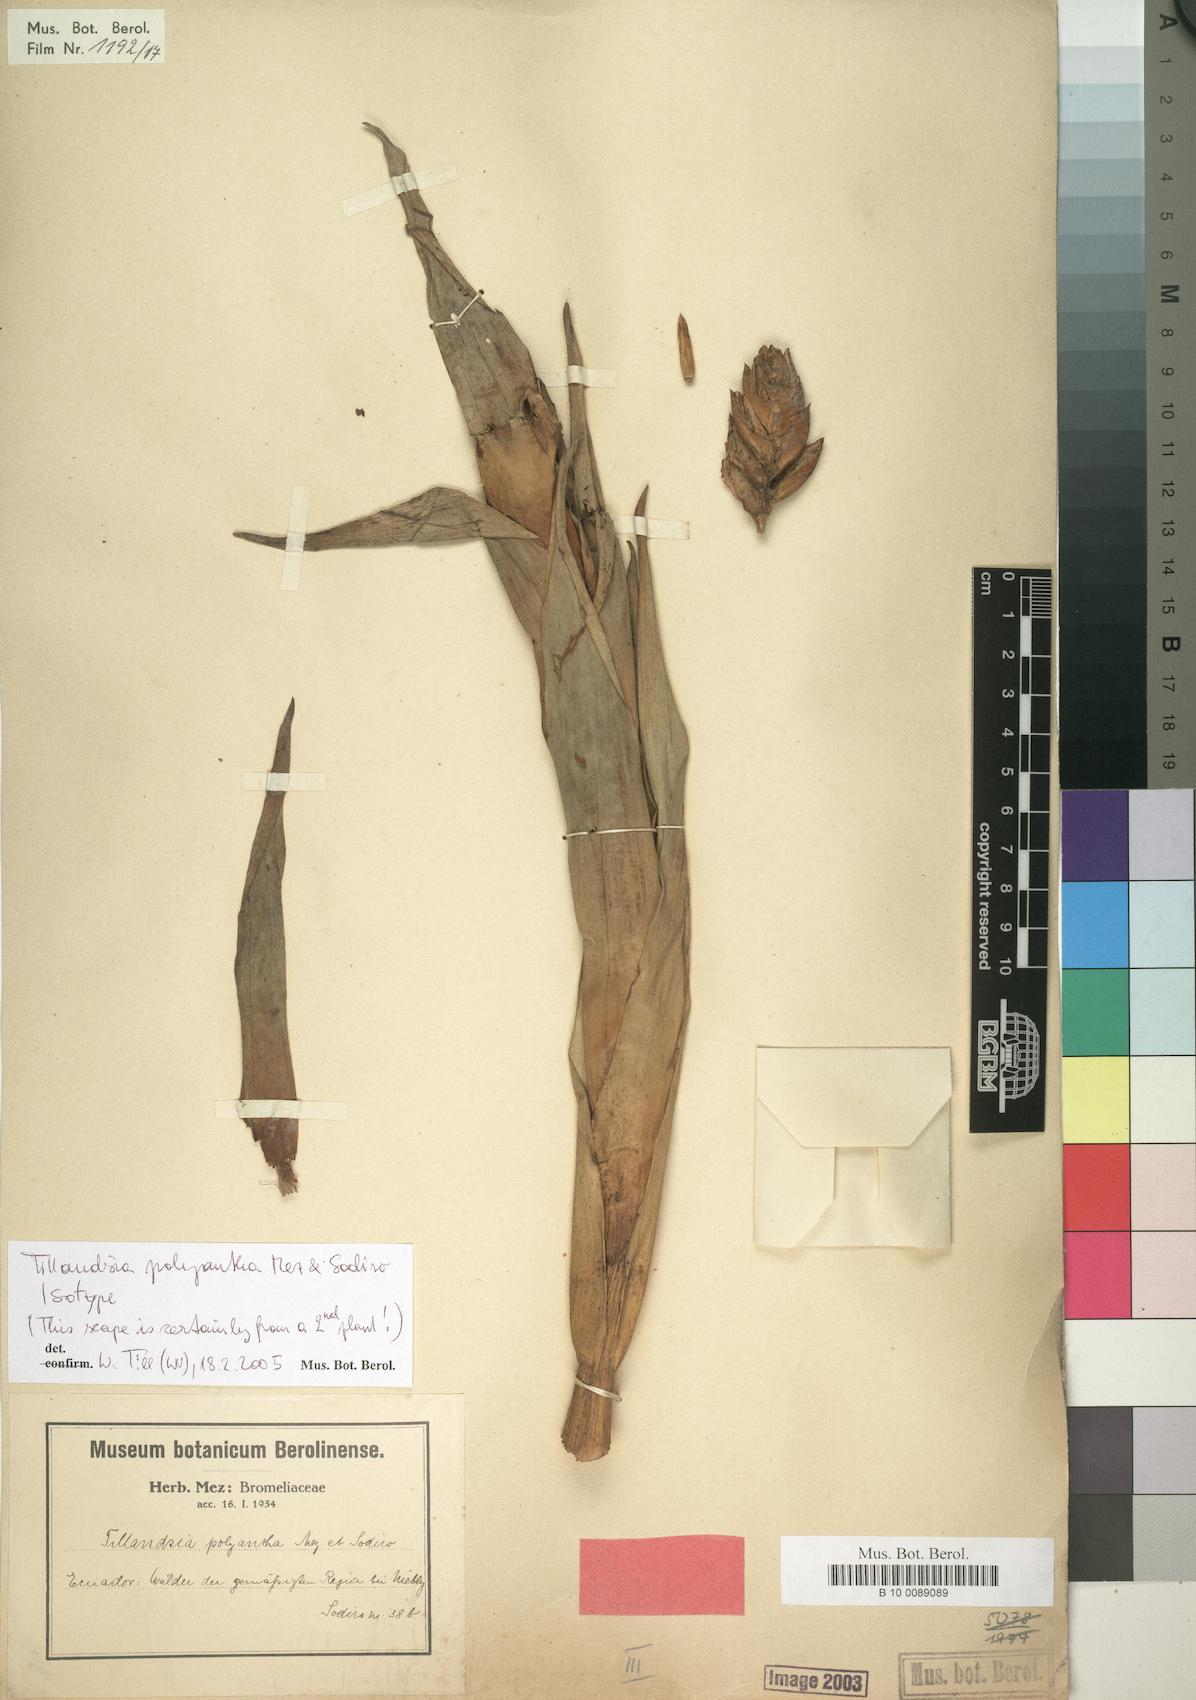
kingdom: Plantae
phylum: Tracheophyta
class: Liliopsida
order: Poales
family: Bromeliaceae
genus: Tillandsia
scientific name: Tillandsia polyantha
